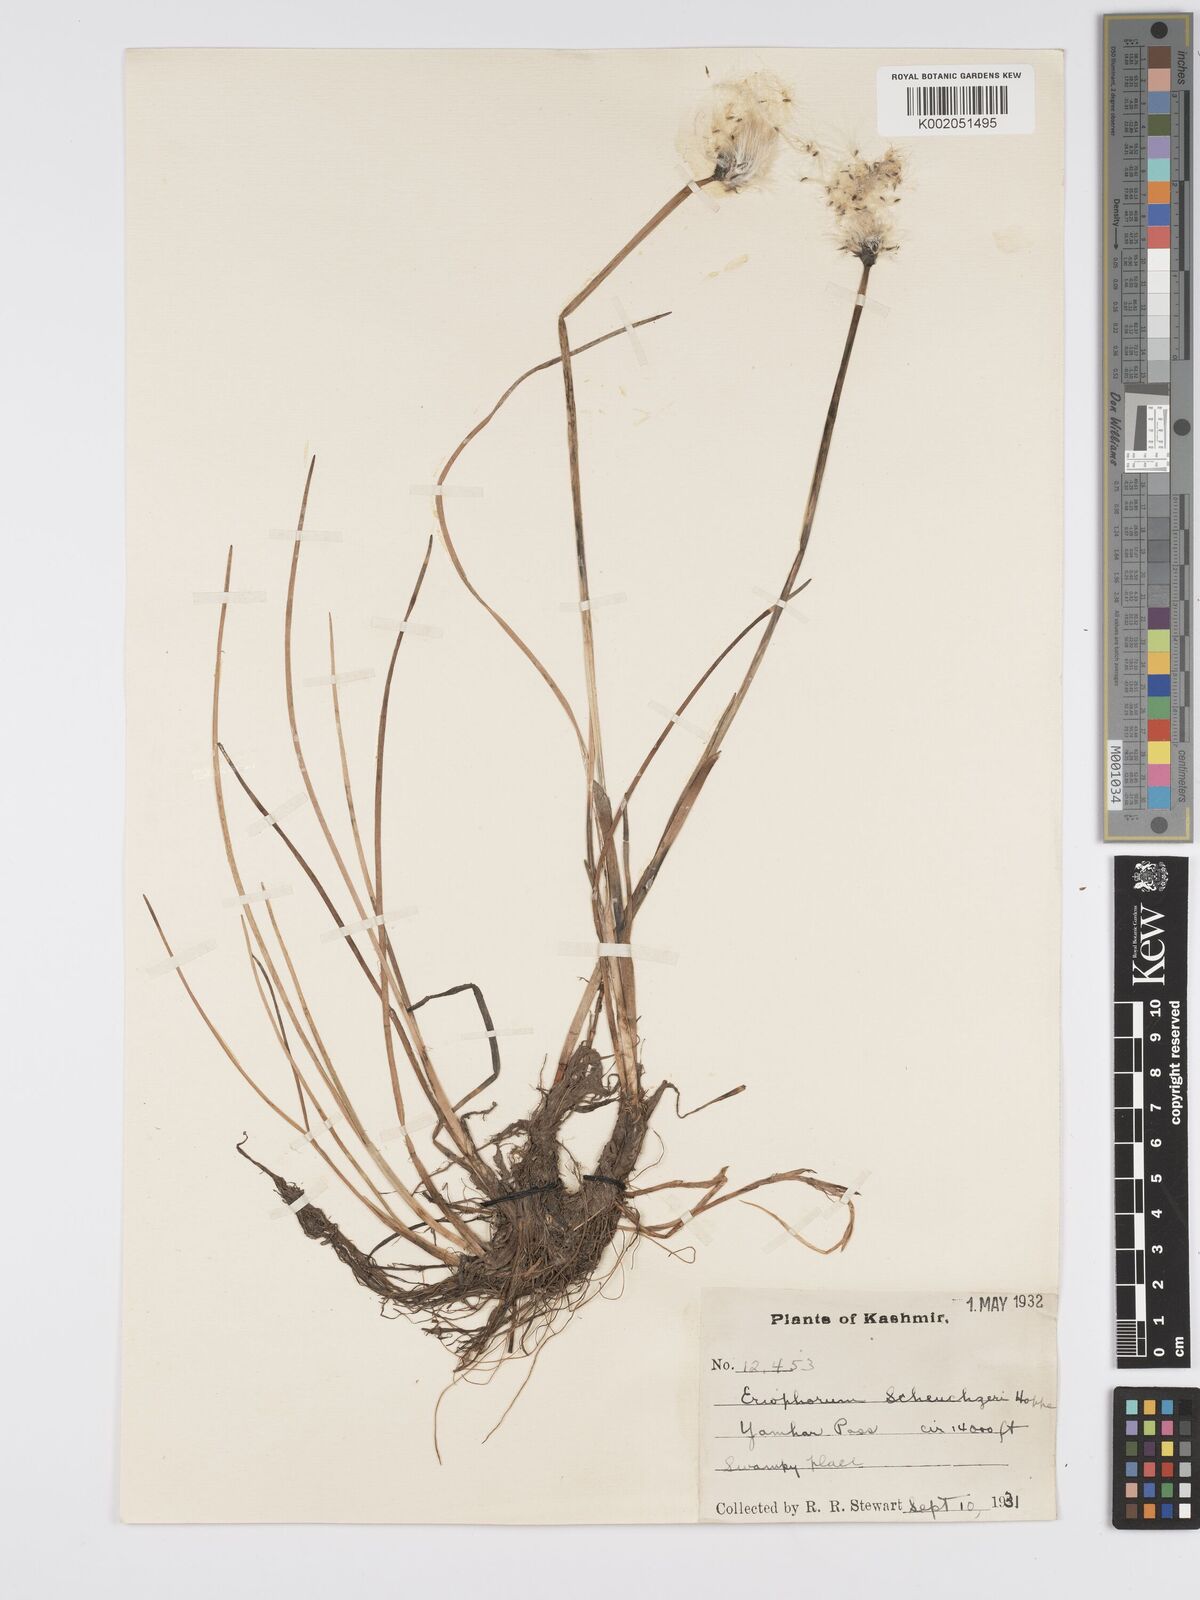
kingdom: Plantae
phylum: Tracheophyta
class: Liliopsida
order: Poales
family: Cyperaceae
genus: Eriophorum
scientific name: Eriophorum scheuchzeri
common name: Scheuchzer's cottongrass
